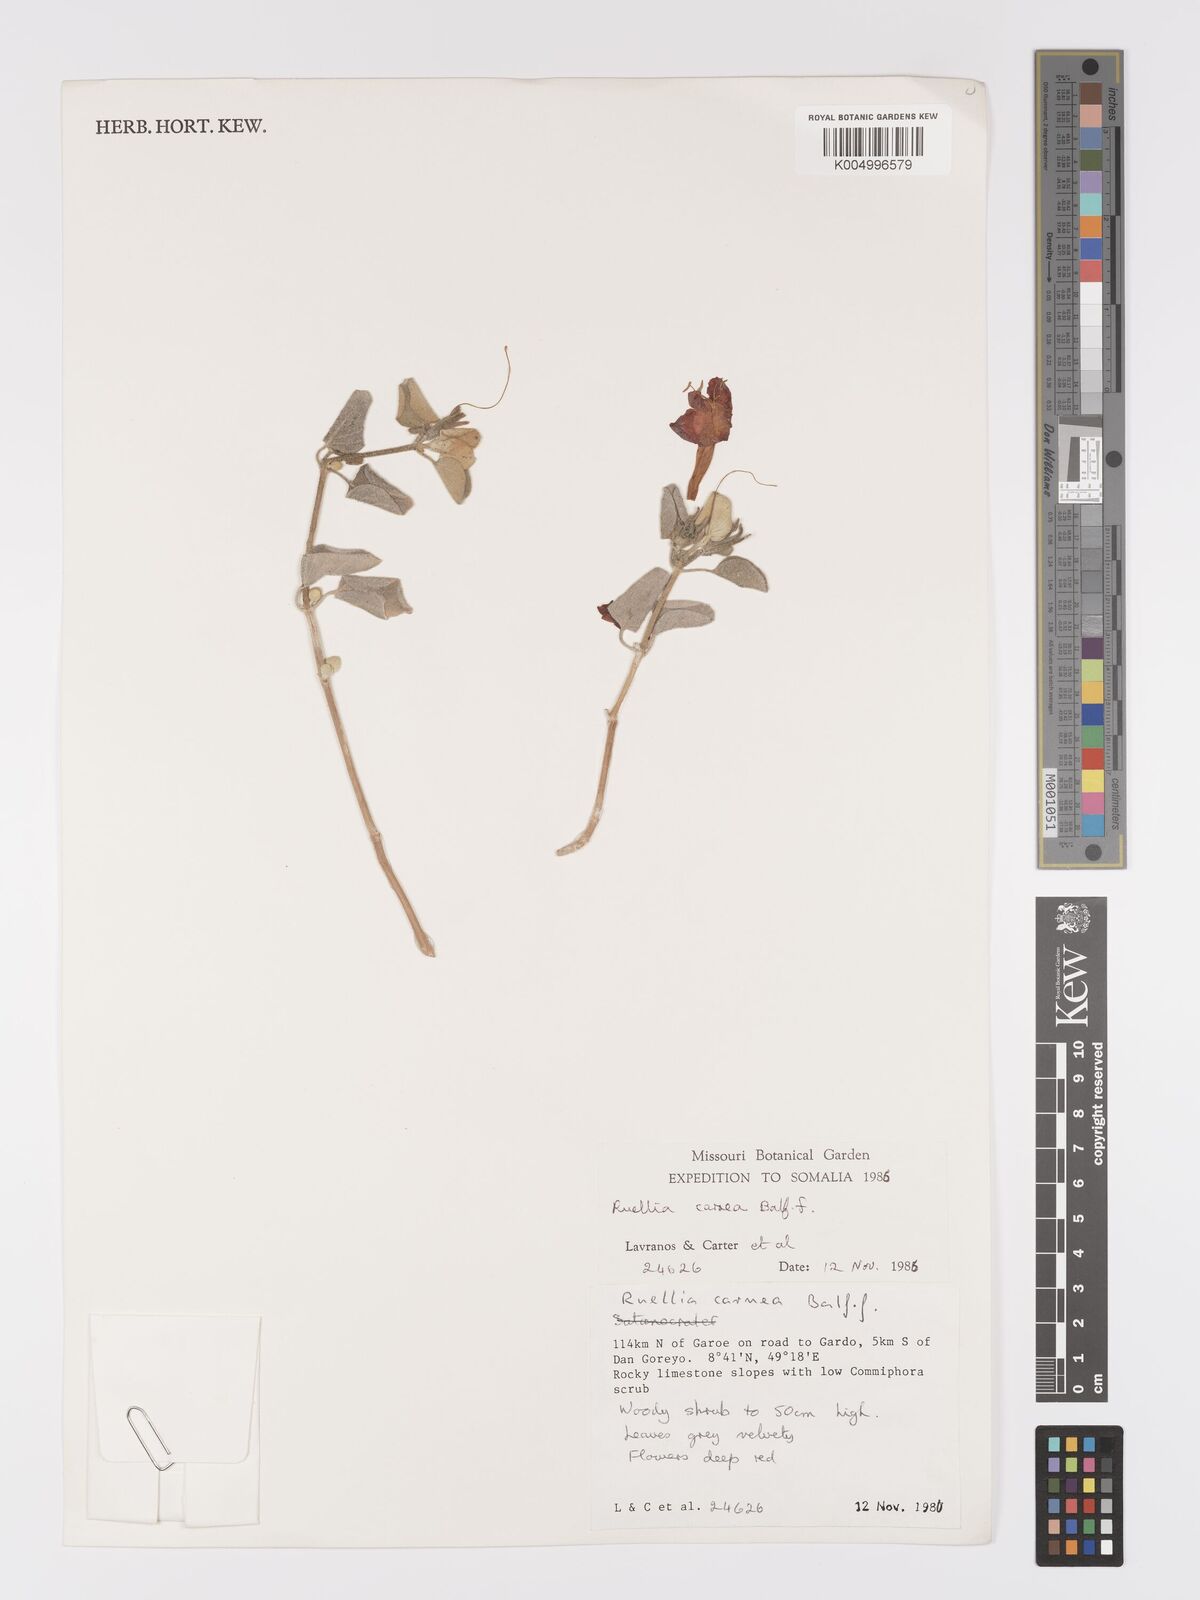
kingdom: Plantae
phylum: Tracheophyta
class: Magnoliopsida
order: Lamiales
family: Acanthaceae
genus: Ruellia
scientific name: Ruellia carnea
